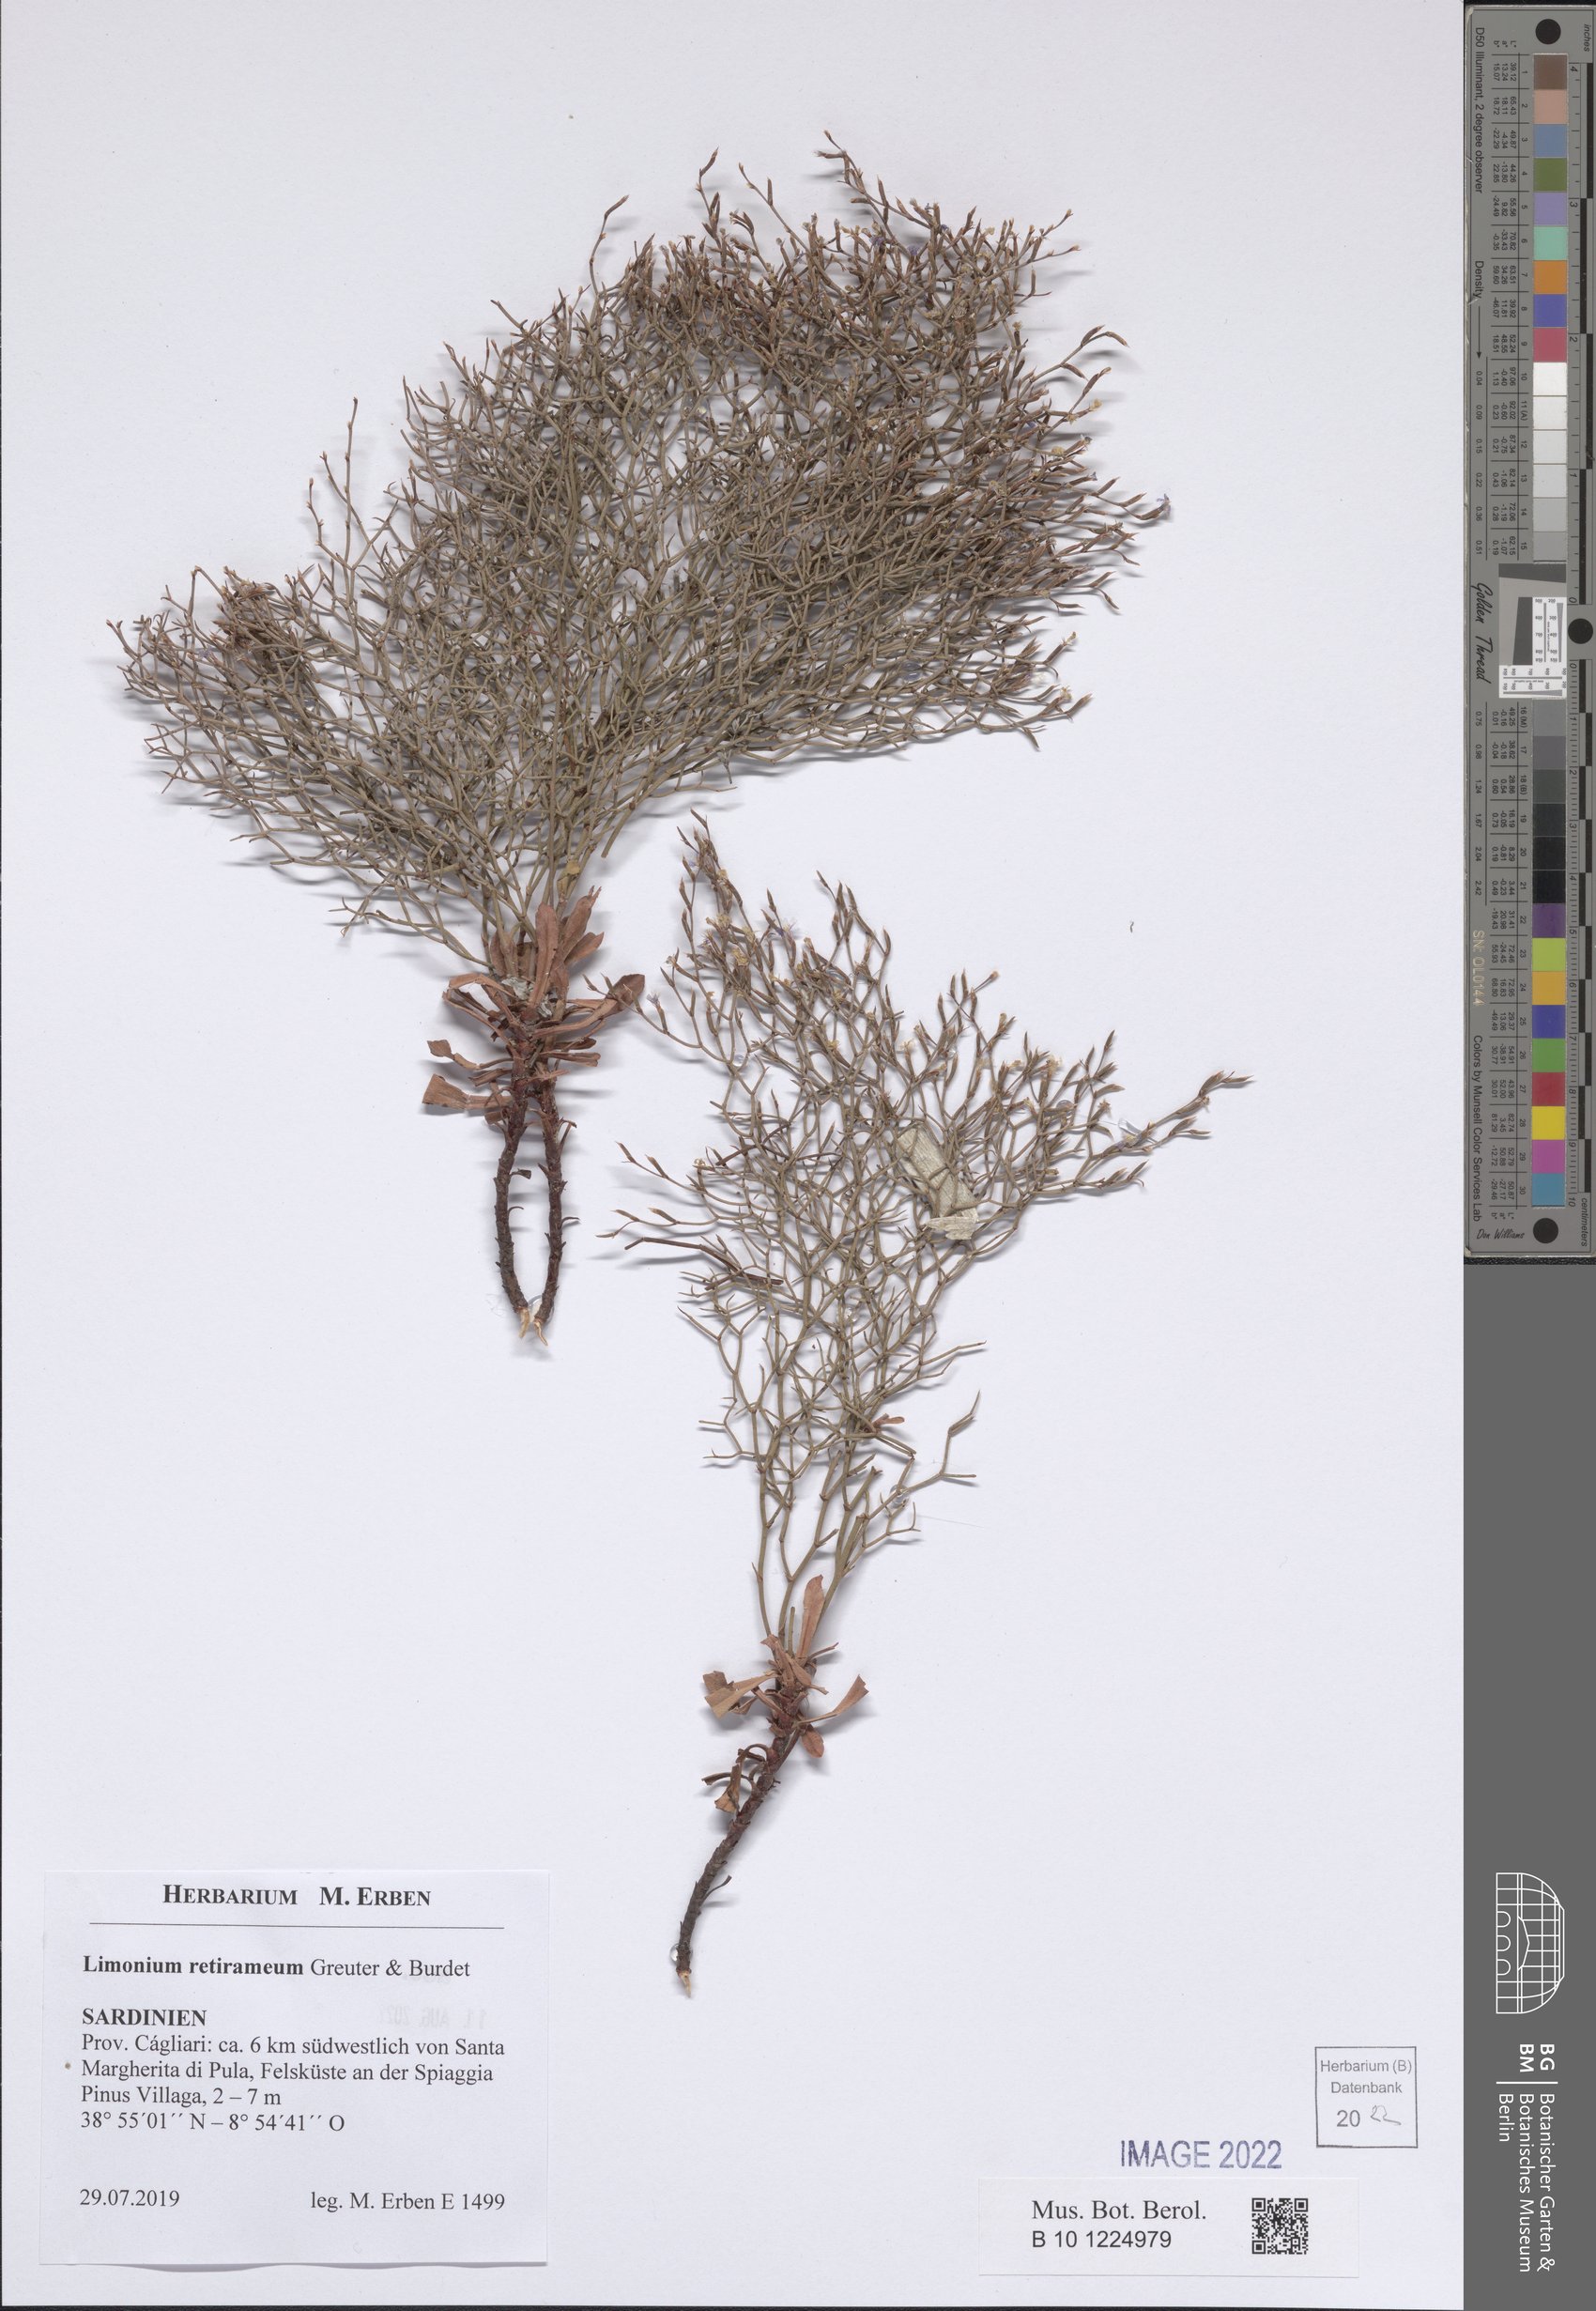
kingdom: Plantae
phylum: Tracheophyta
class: Magnoliopsida
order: Caryophyllales
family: Plumbaginaceae
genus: Limonium
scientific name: Limonium retirameum
